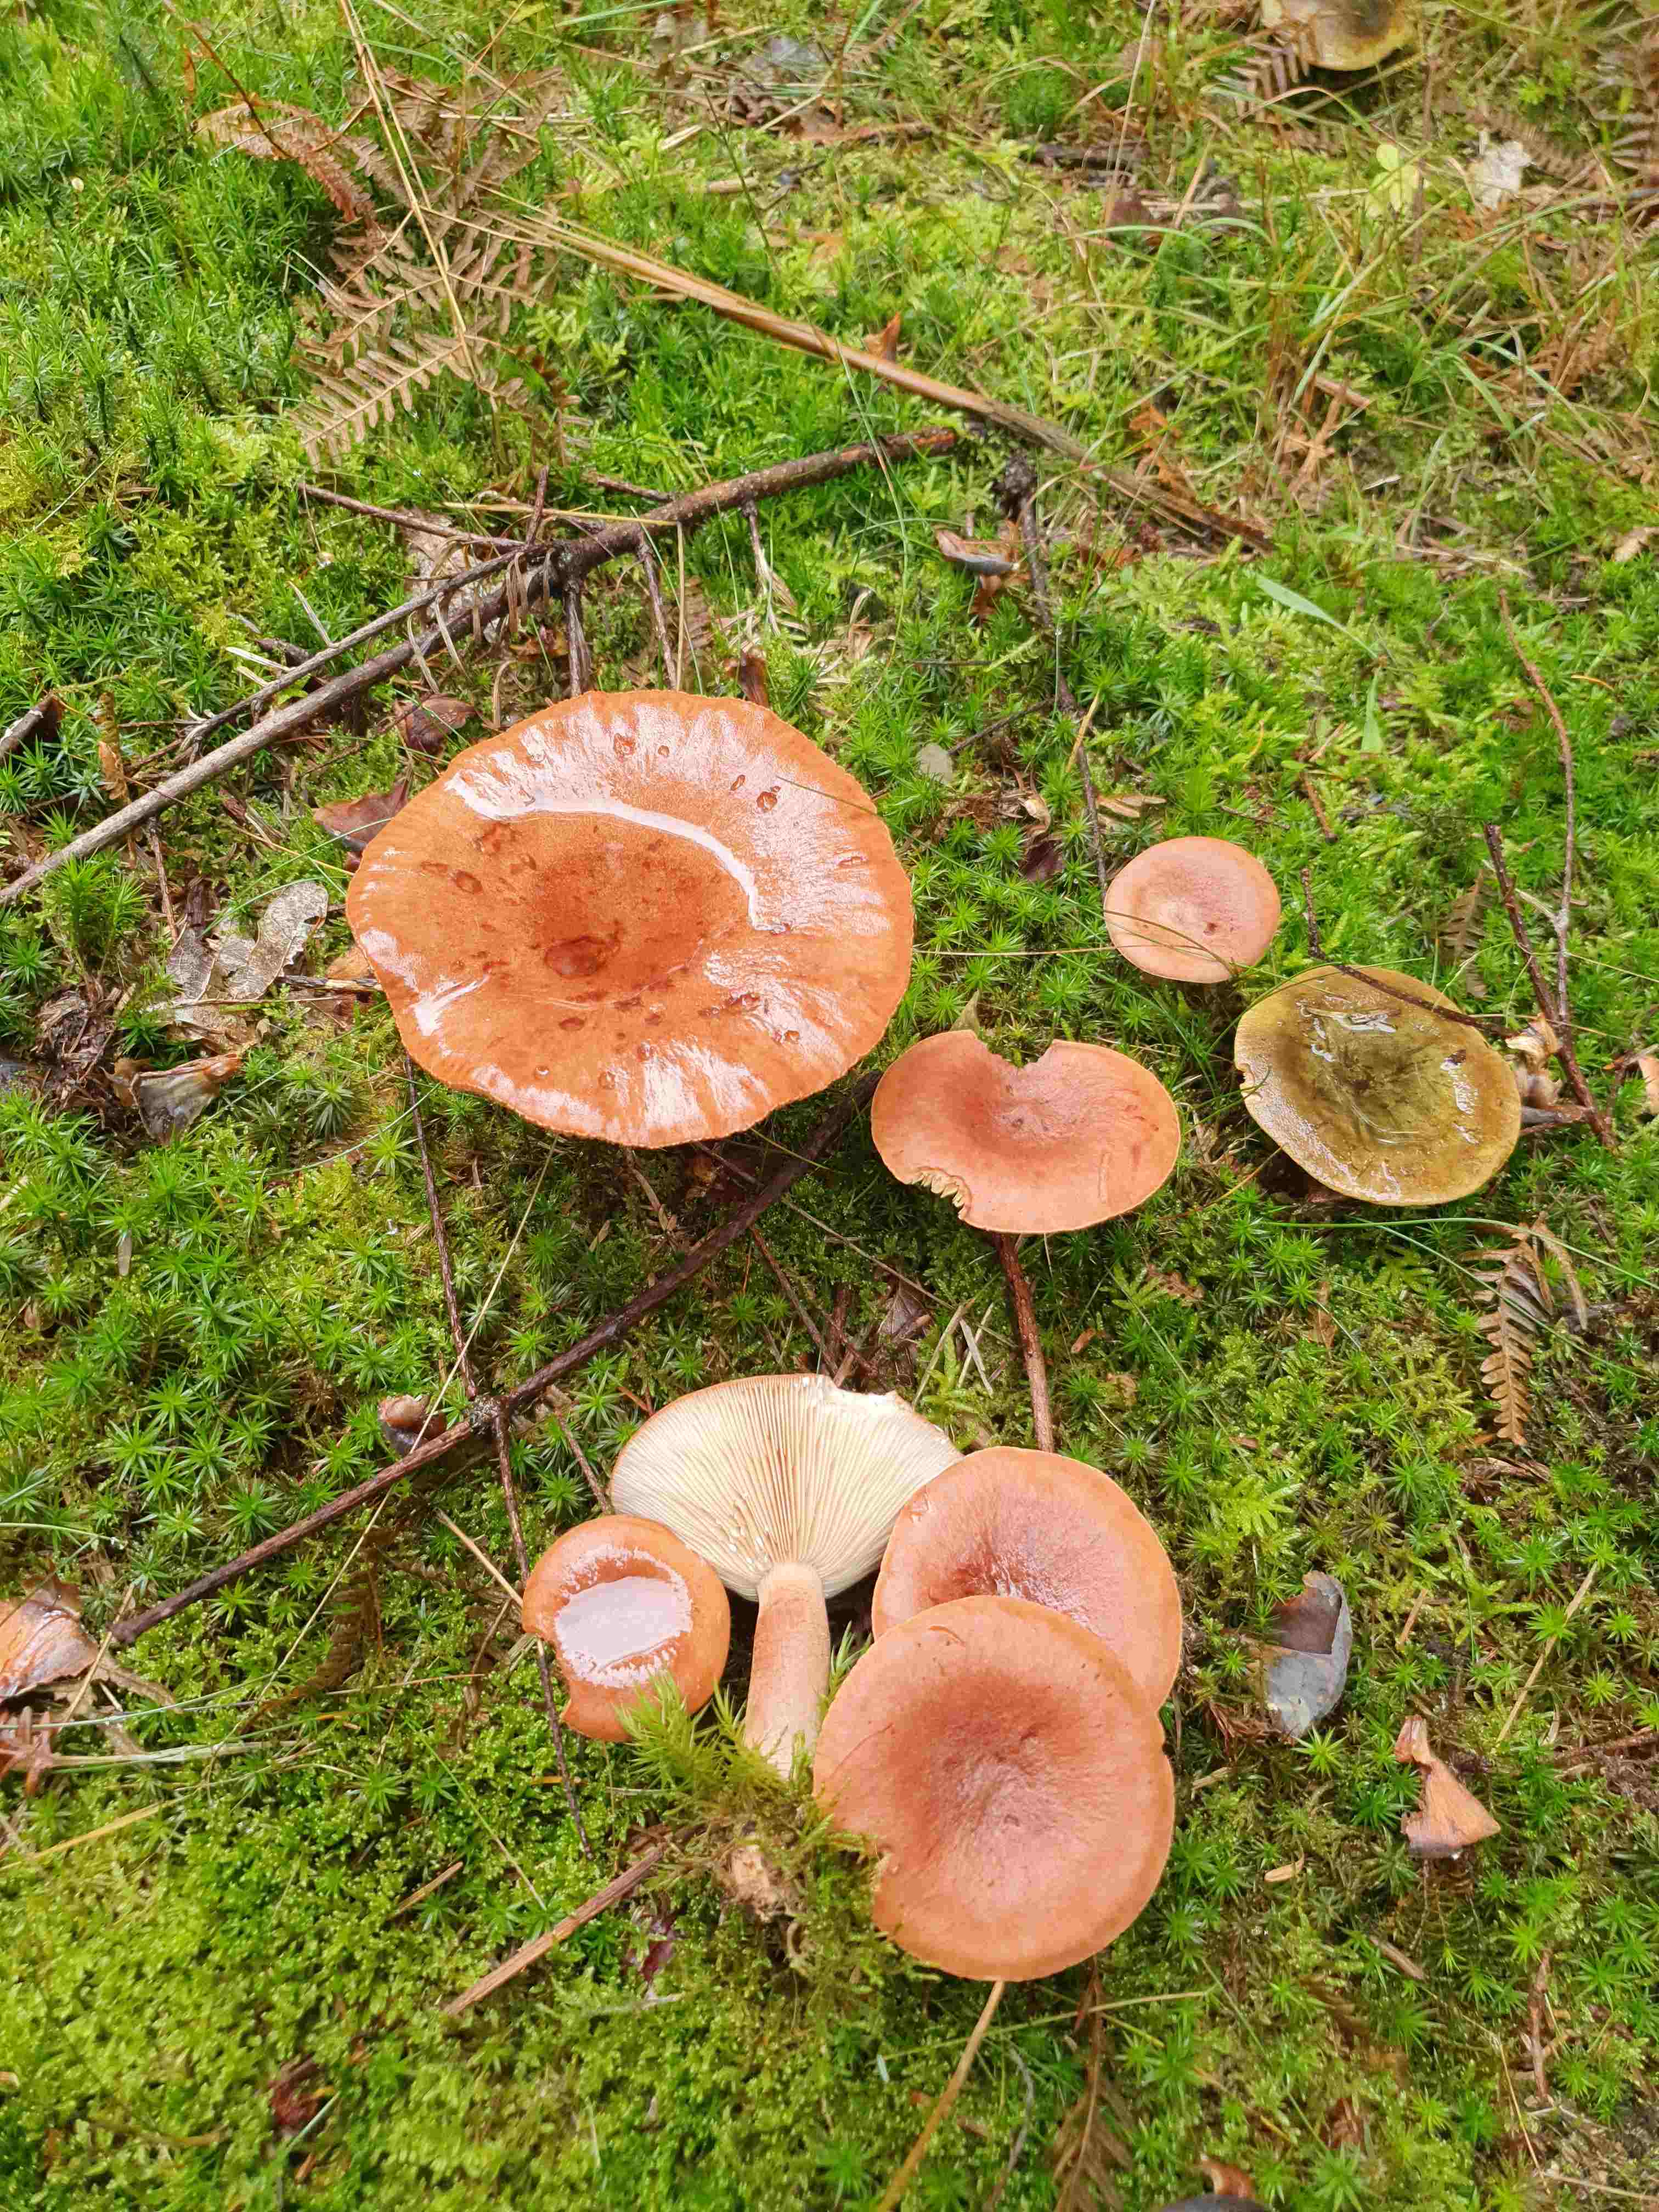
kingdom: Fungi
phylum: Basidiomycota
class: Agaricomycetes
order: Russulales
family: Russulaceae
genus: Lactarius
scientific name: Lactarius rufus
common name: rødbrun mælkehat
